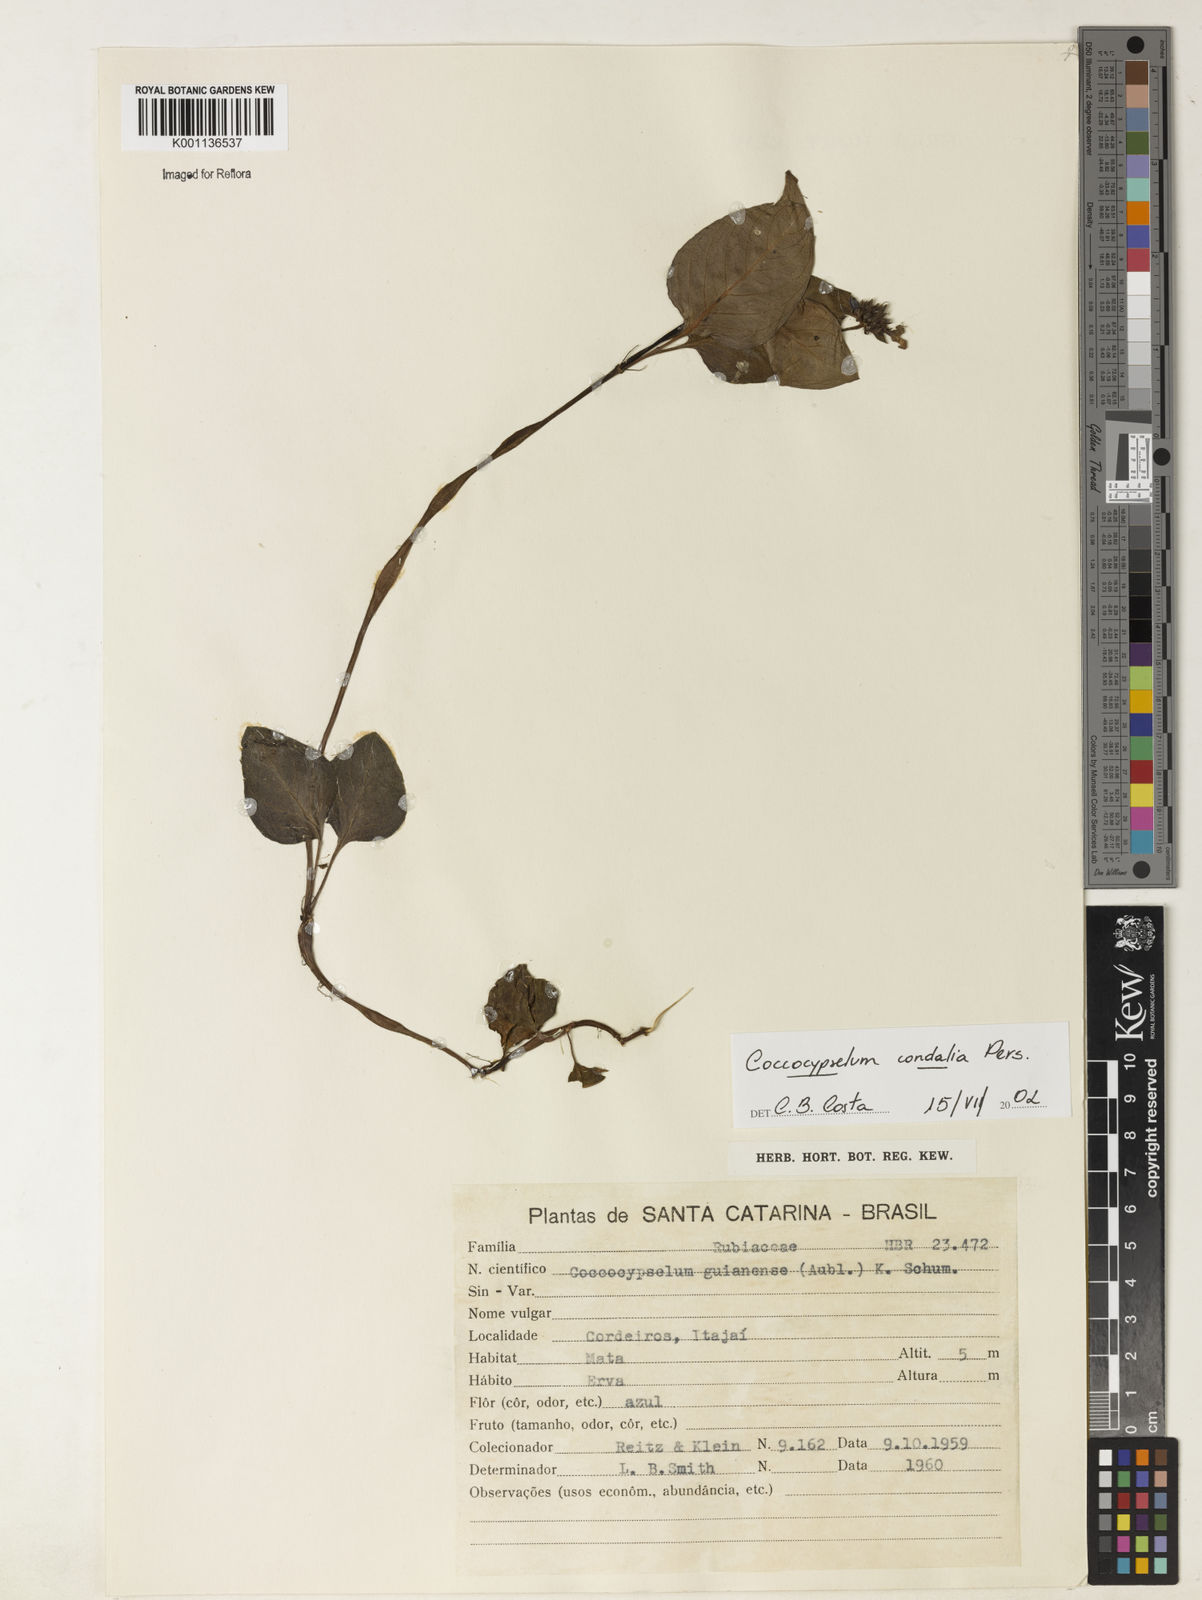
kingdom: Plantae
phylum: Tracheophyta
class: Magnoliopsida
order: Gentianales
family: Rubiaceae
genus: Coccocypselum
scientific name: Coccocypselum condalia
